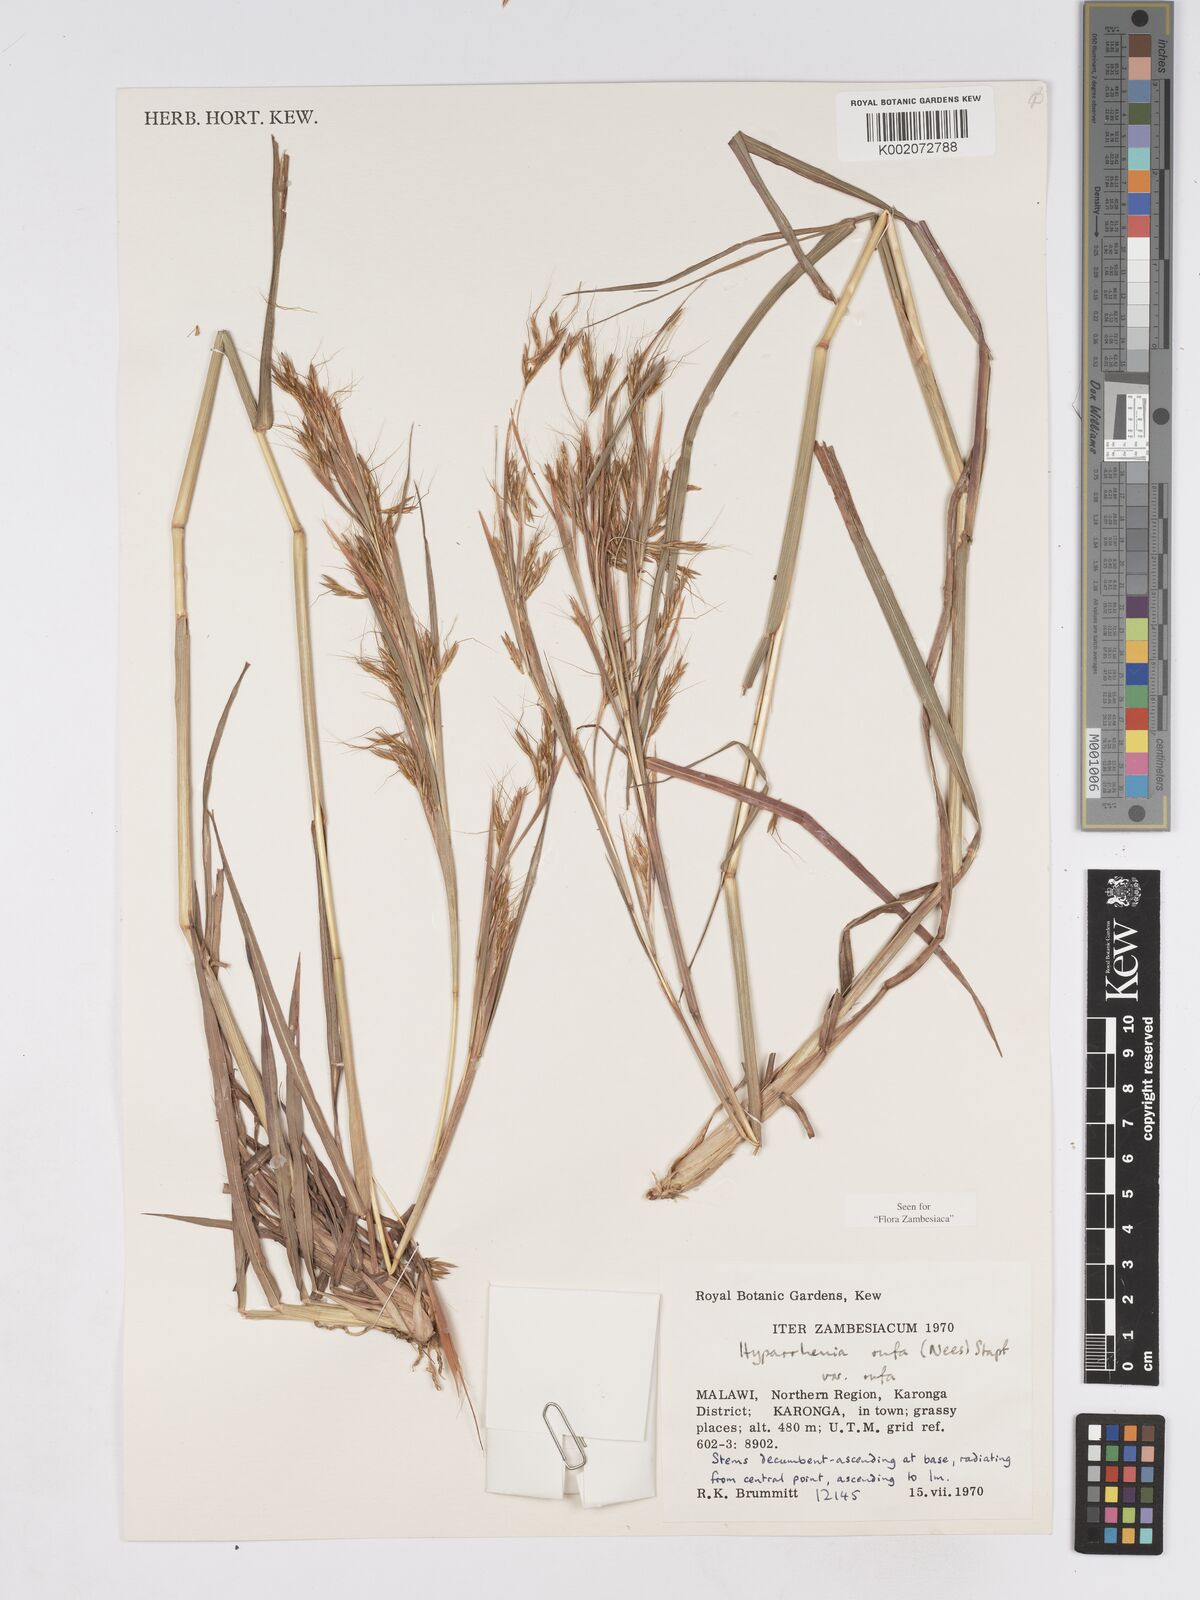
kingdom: Plantae
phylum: Tracheophyta
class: Liliopsida
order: Poales
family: Poaceae
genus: Hyparrhenia
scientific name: Hyparrhenia rufa
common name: Jaraguagrass
